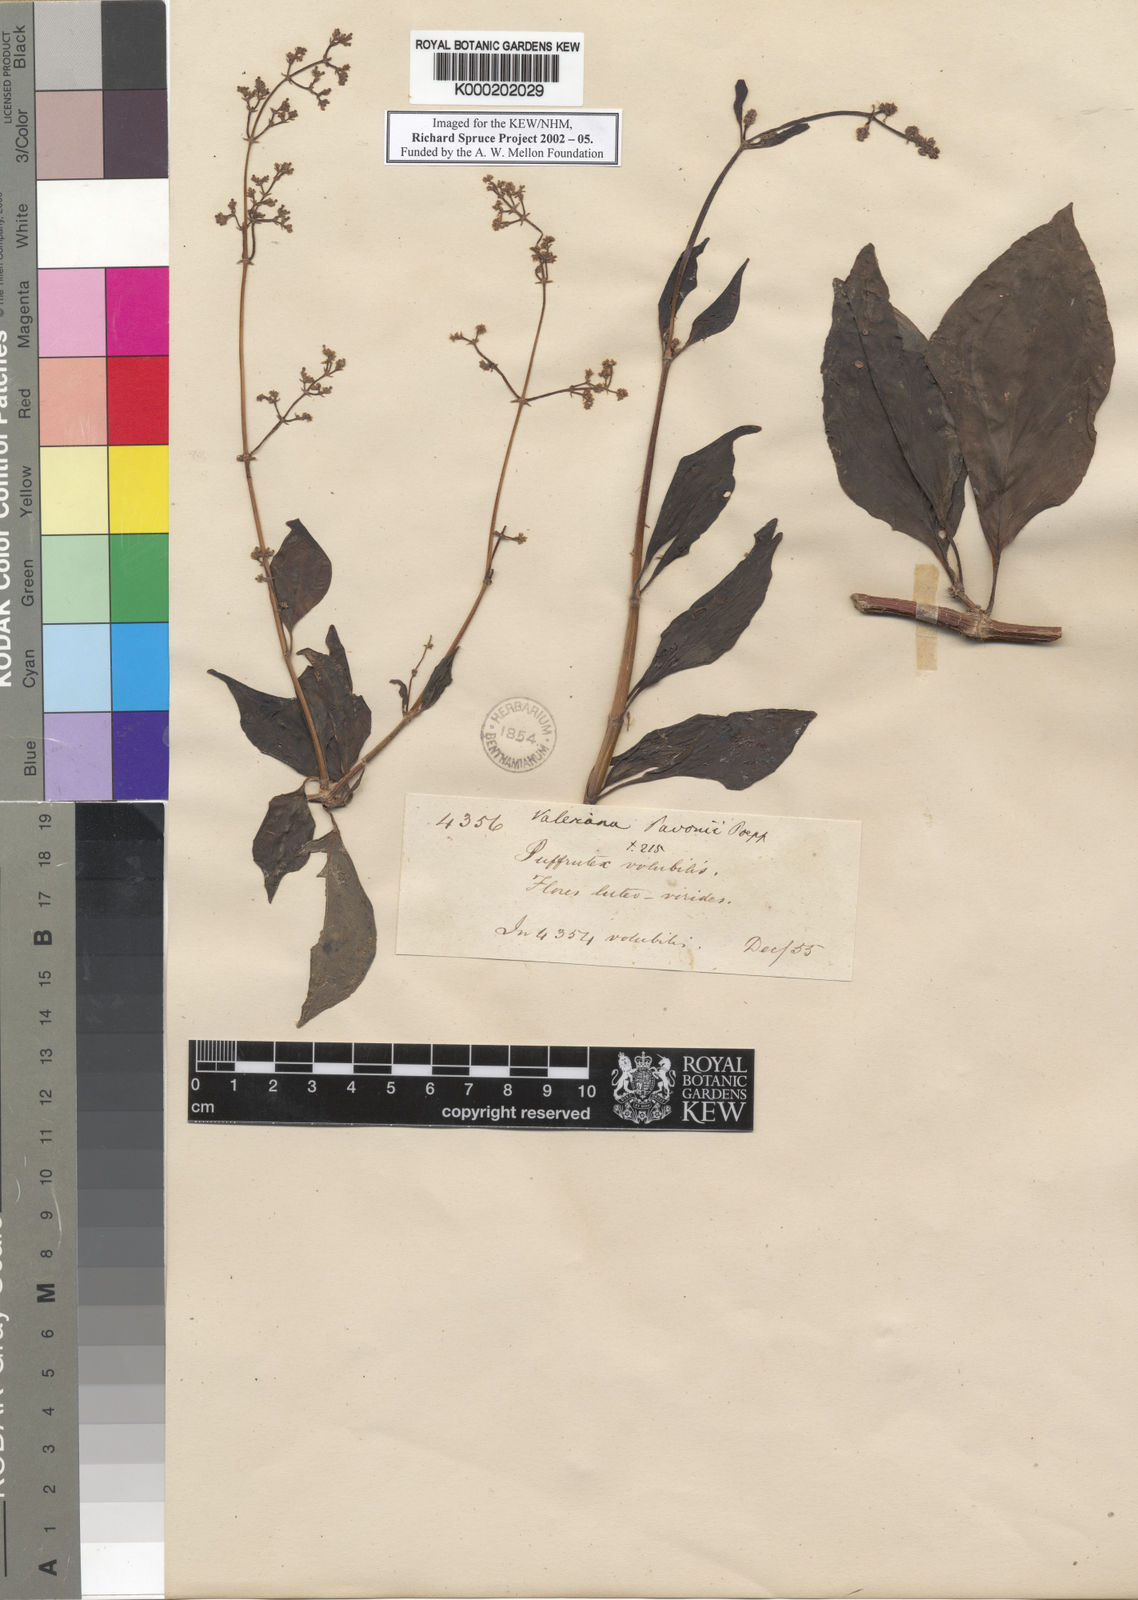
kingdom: Plantae
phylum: Tracheophyta
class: Magnoliopsida
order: Dipsacales
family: Caprifoliaceae
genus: Valeriana
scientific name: Valeriana clematitis
